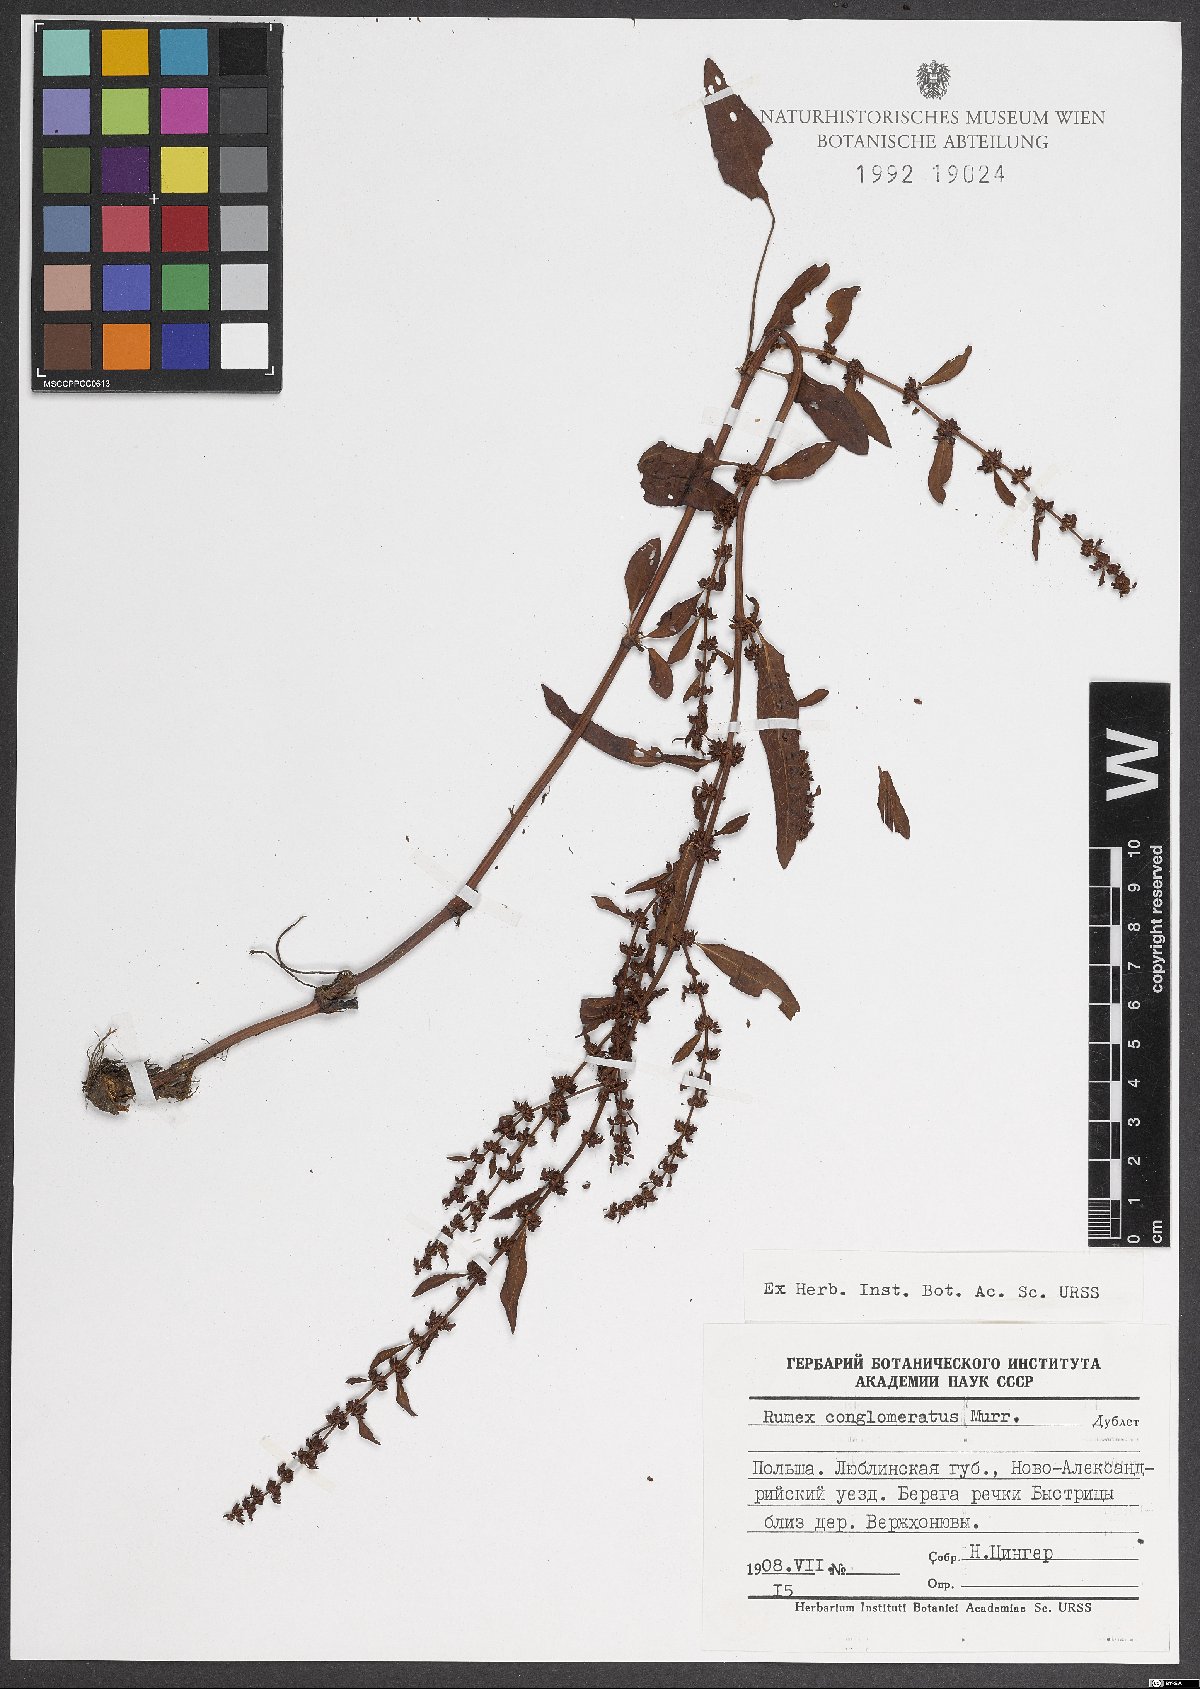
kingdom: Plantae
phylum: Tracheophyta
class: Magnoliopsida
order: Caryophyllales
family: Polygonaceae
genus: Rumex
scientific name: Rumex conglomeratus
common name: Clustered dock
